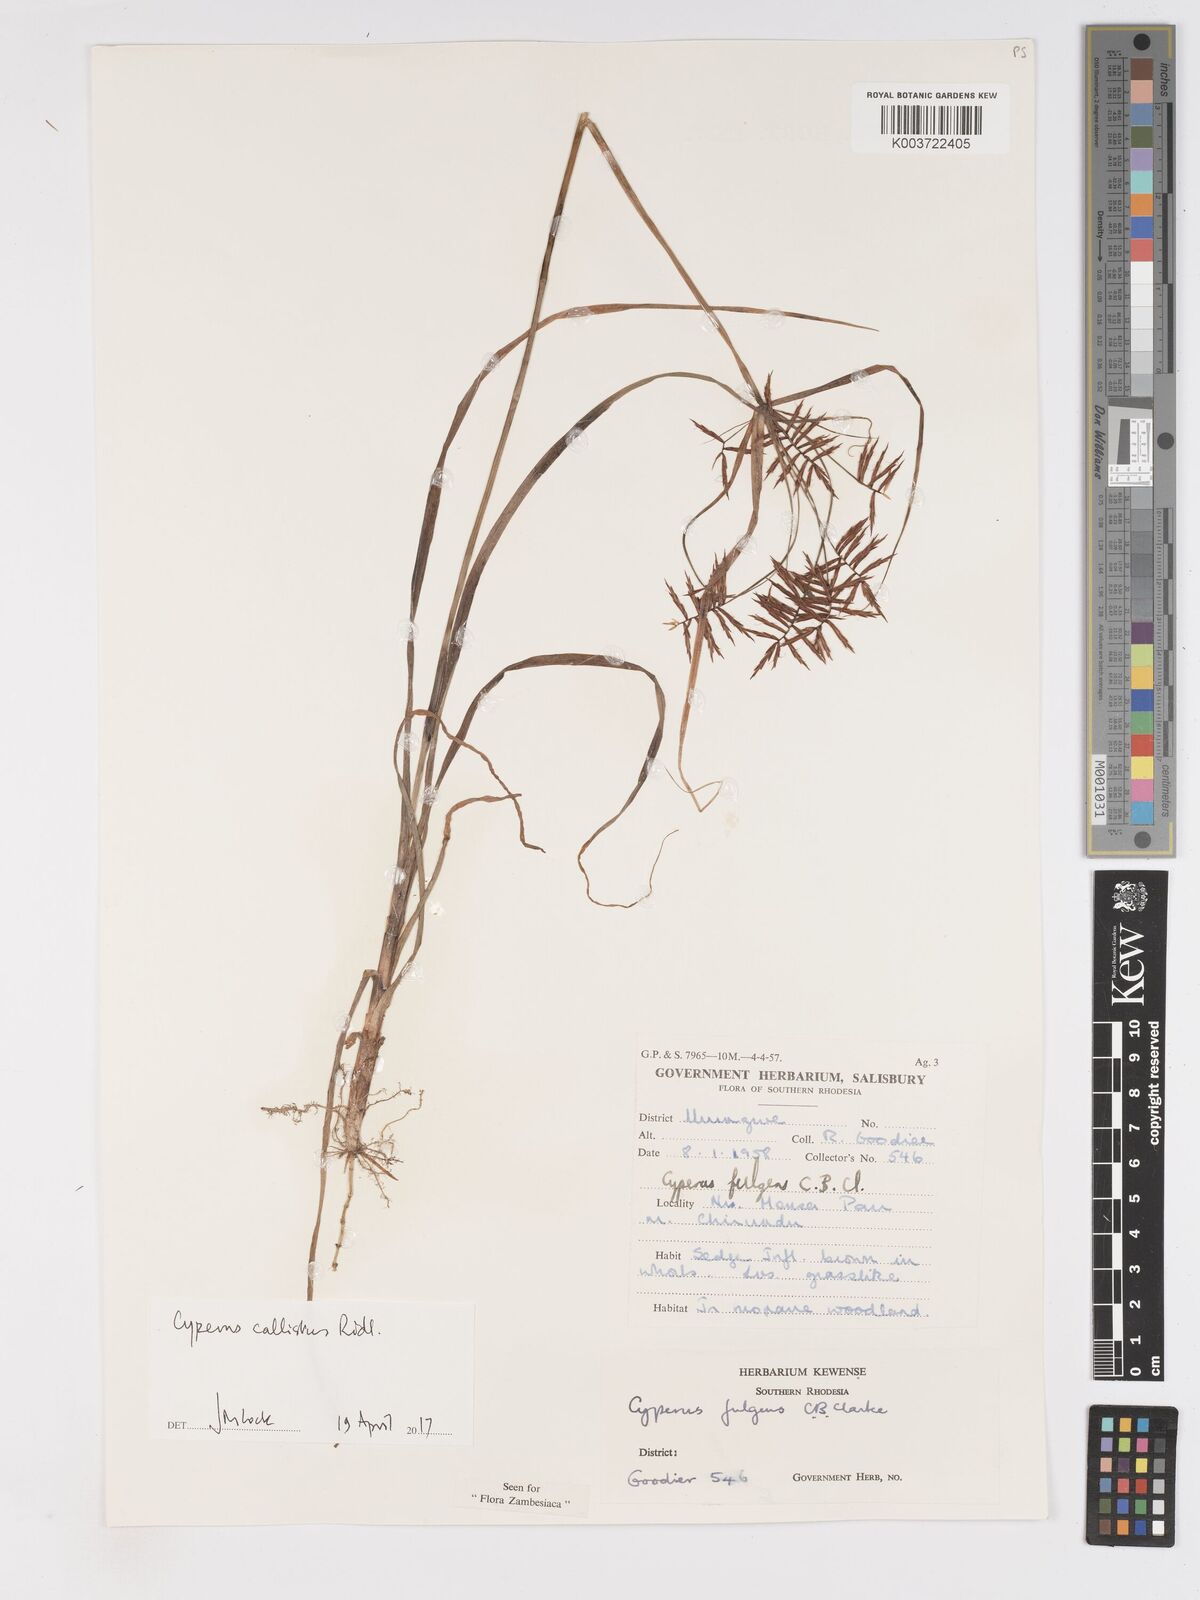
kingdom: Plantae
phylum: Tracheophyta
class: Liliopsida
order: Poales
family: Cyperaceae
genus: Cyperus
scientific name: Cyperus callistus
